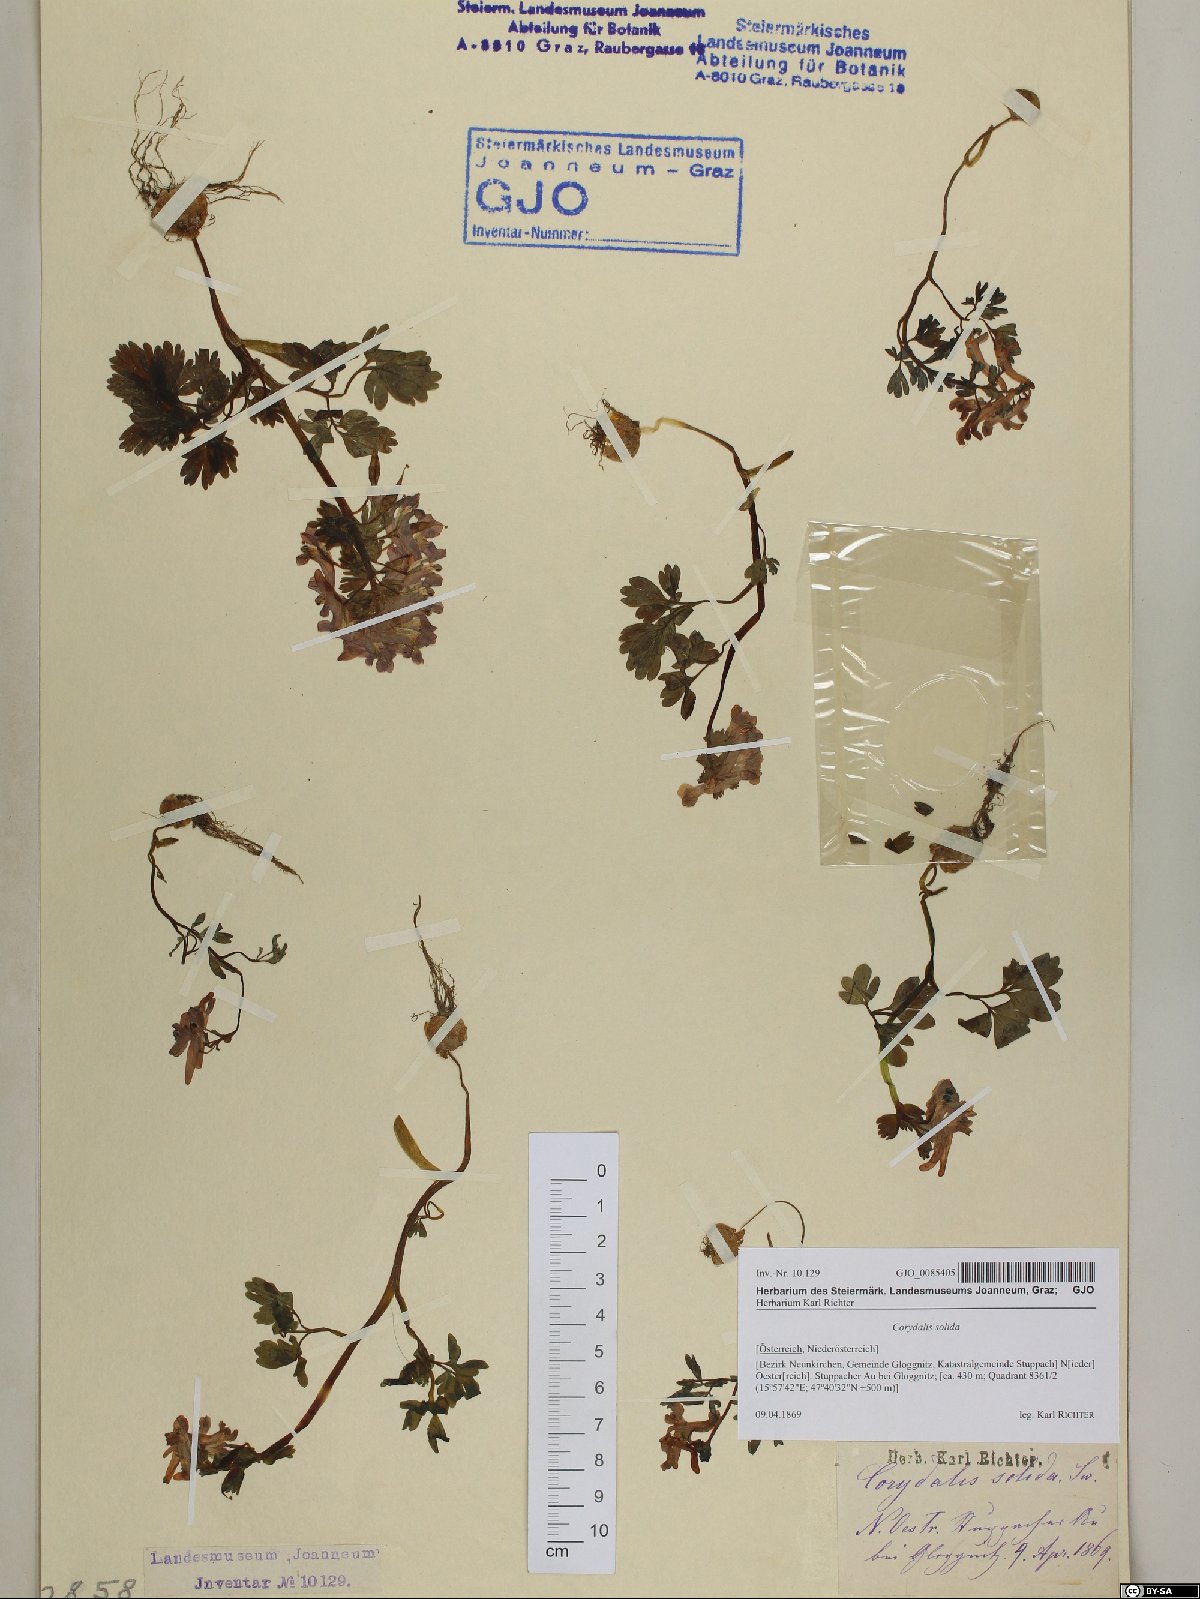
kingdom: Plantae
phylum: Tracheophyta
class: Magnoliopsida
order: Ranunculales
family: Papaveraceae
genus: Corydalis
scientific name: Corydalis solida
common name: Bird-in-a-bush
